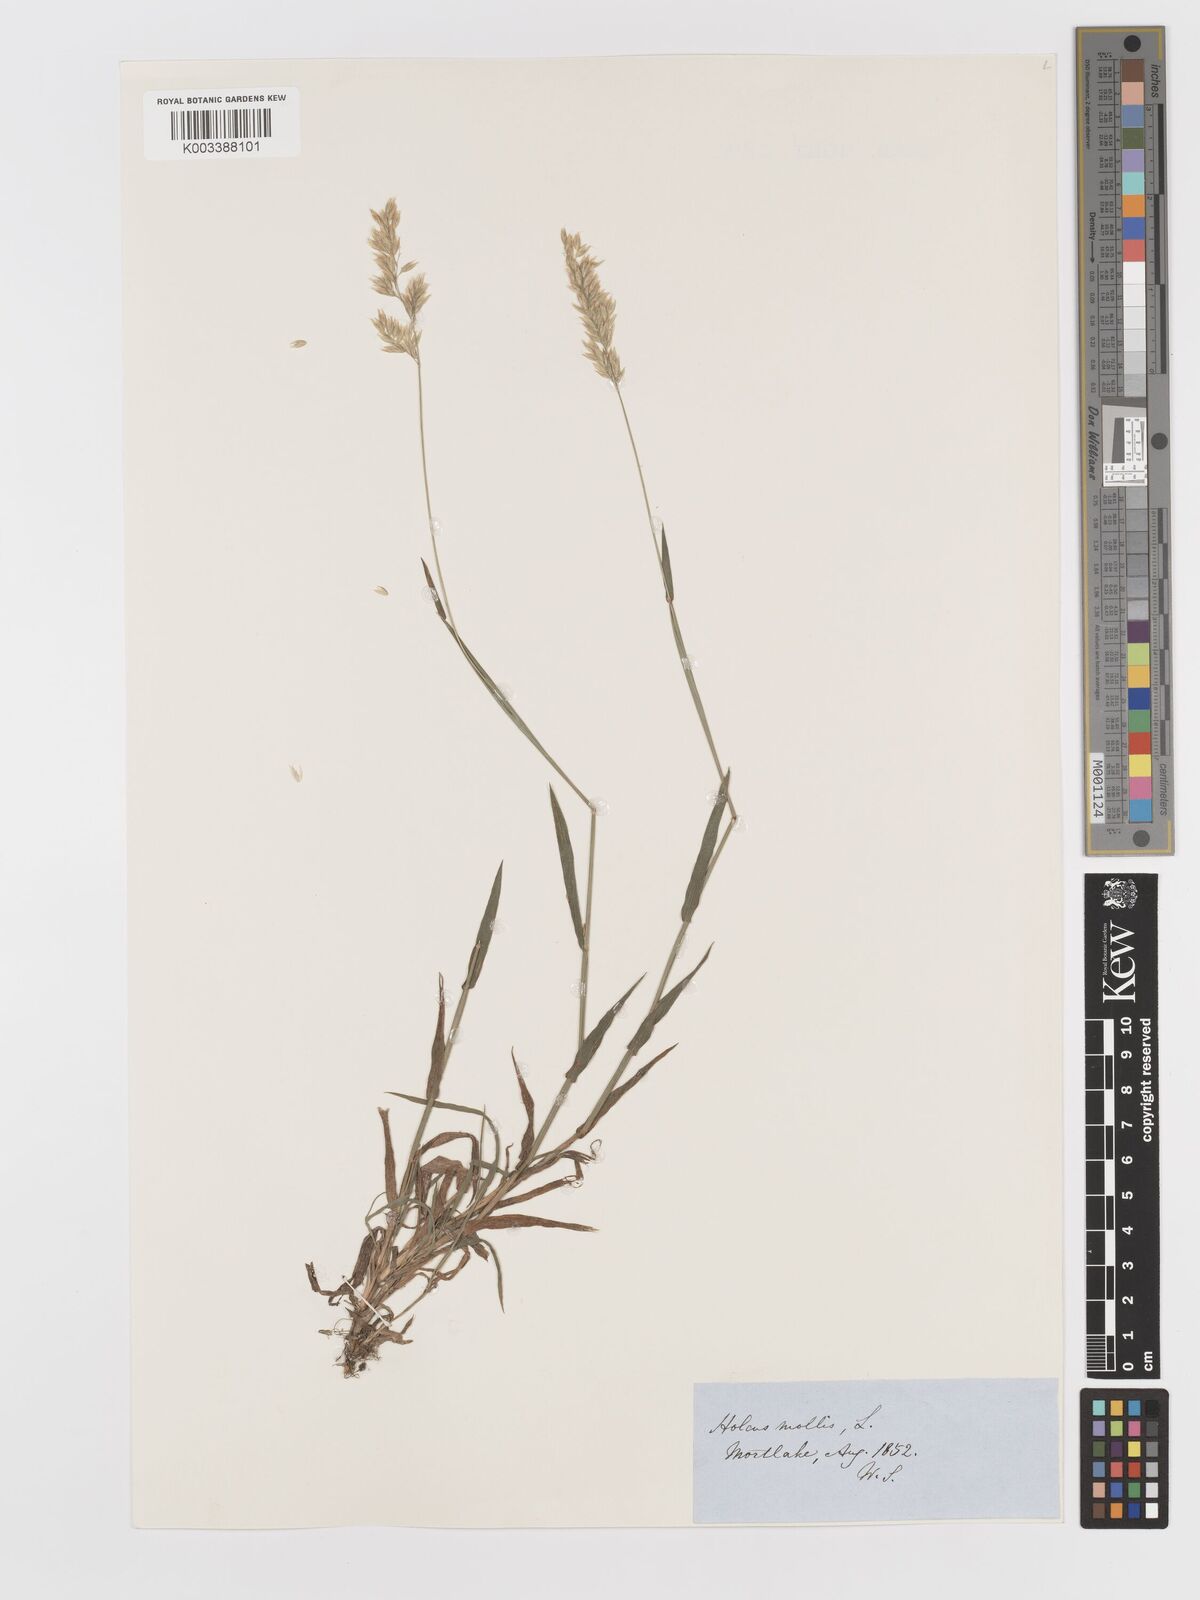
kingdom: Plantae
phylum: Tracheophyta
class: Liliopsida
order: Poales
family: Poaceae
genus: Holcus
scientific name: Holcus mollis
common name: Creeping velvetgrass
